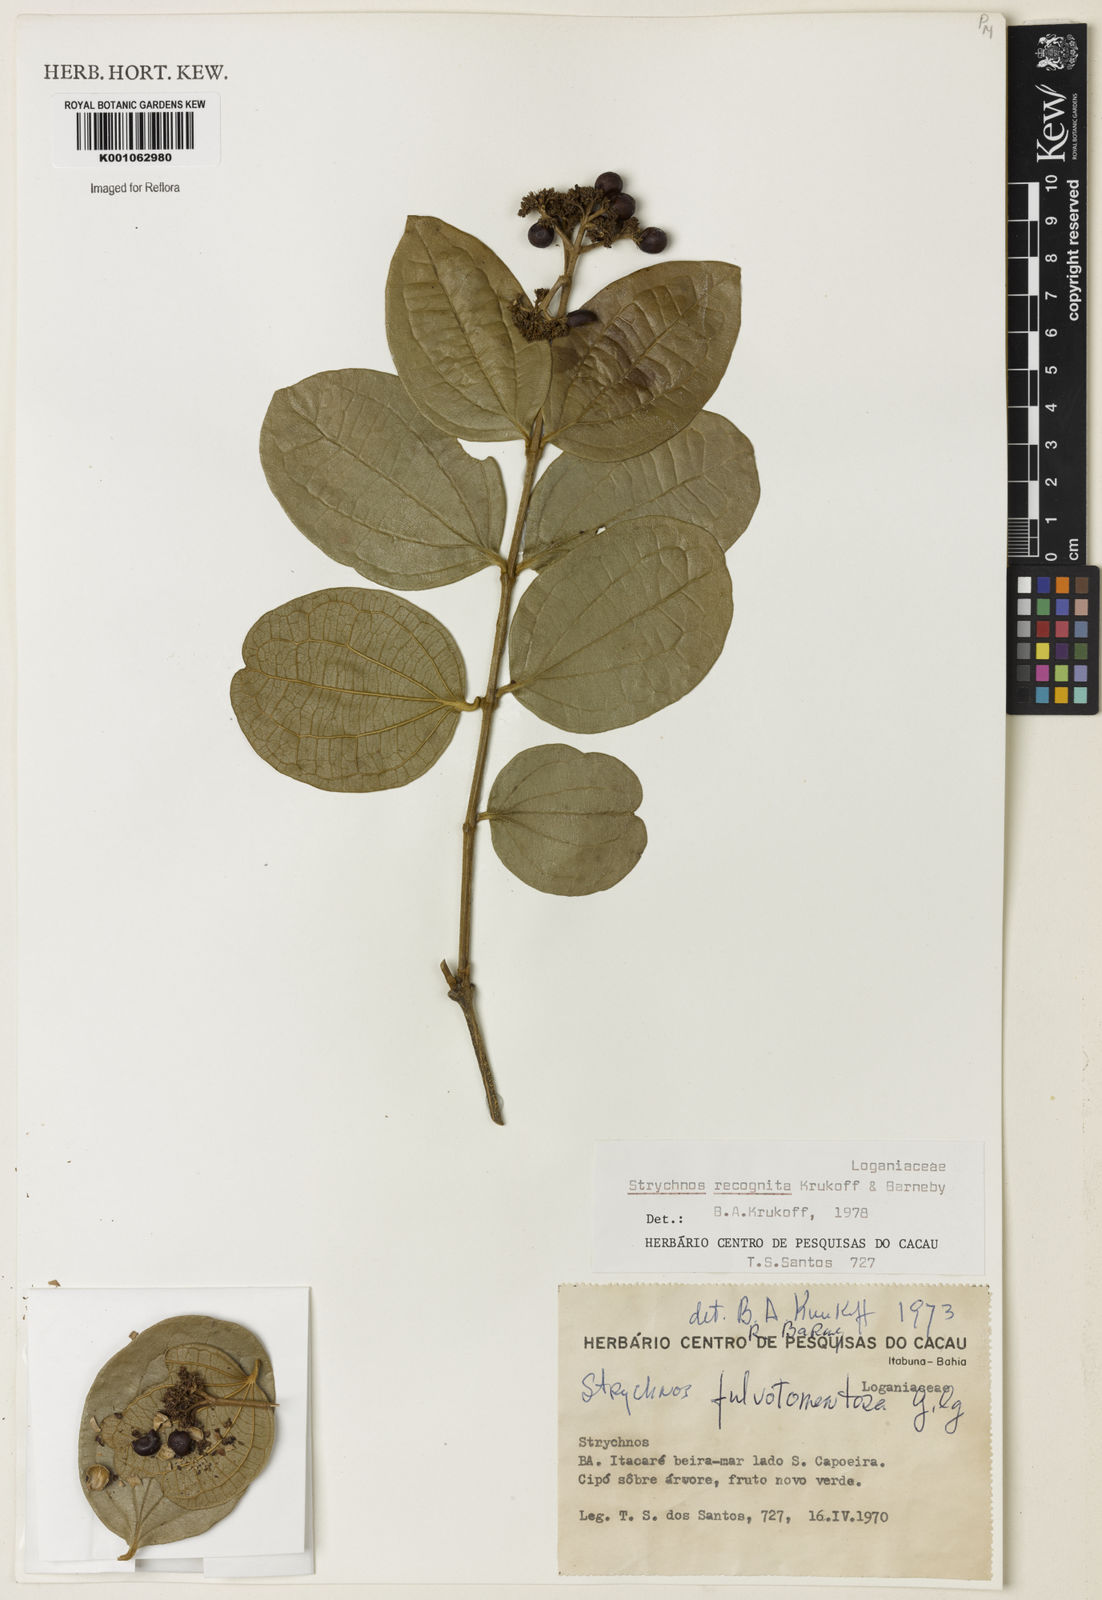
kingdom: Plantae
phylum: Tracheophyta
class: Magnoliopsida
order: Gentianales
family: Loganiaceae
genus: Strychnos
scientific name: Strychnos recognita
